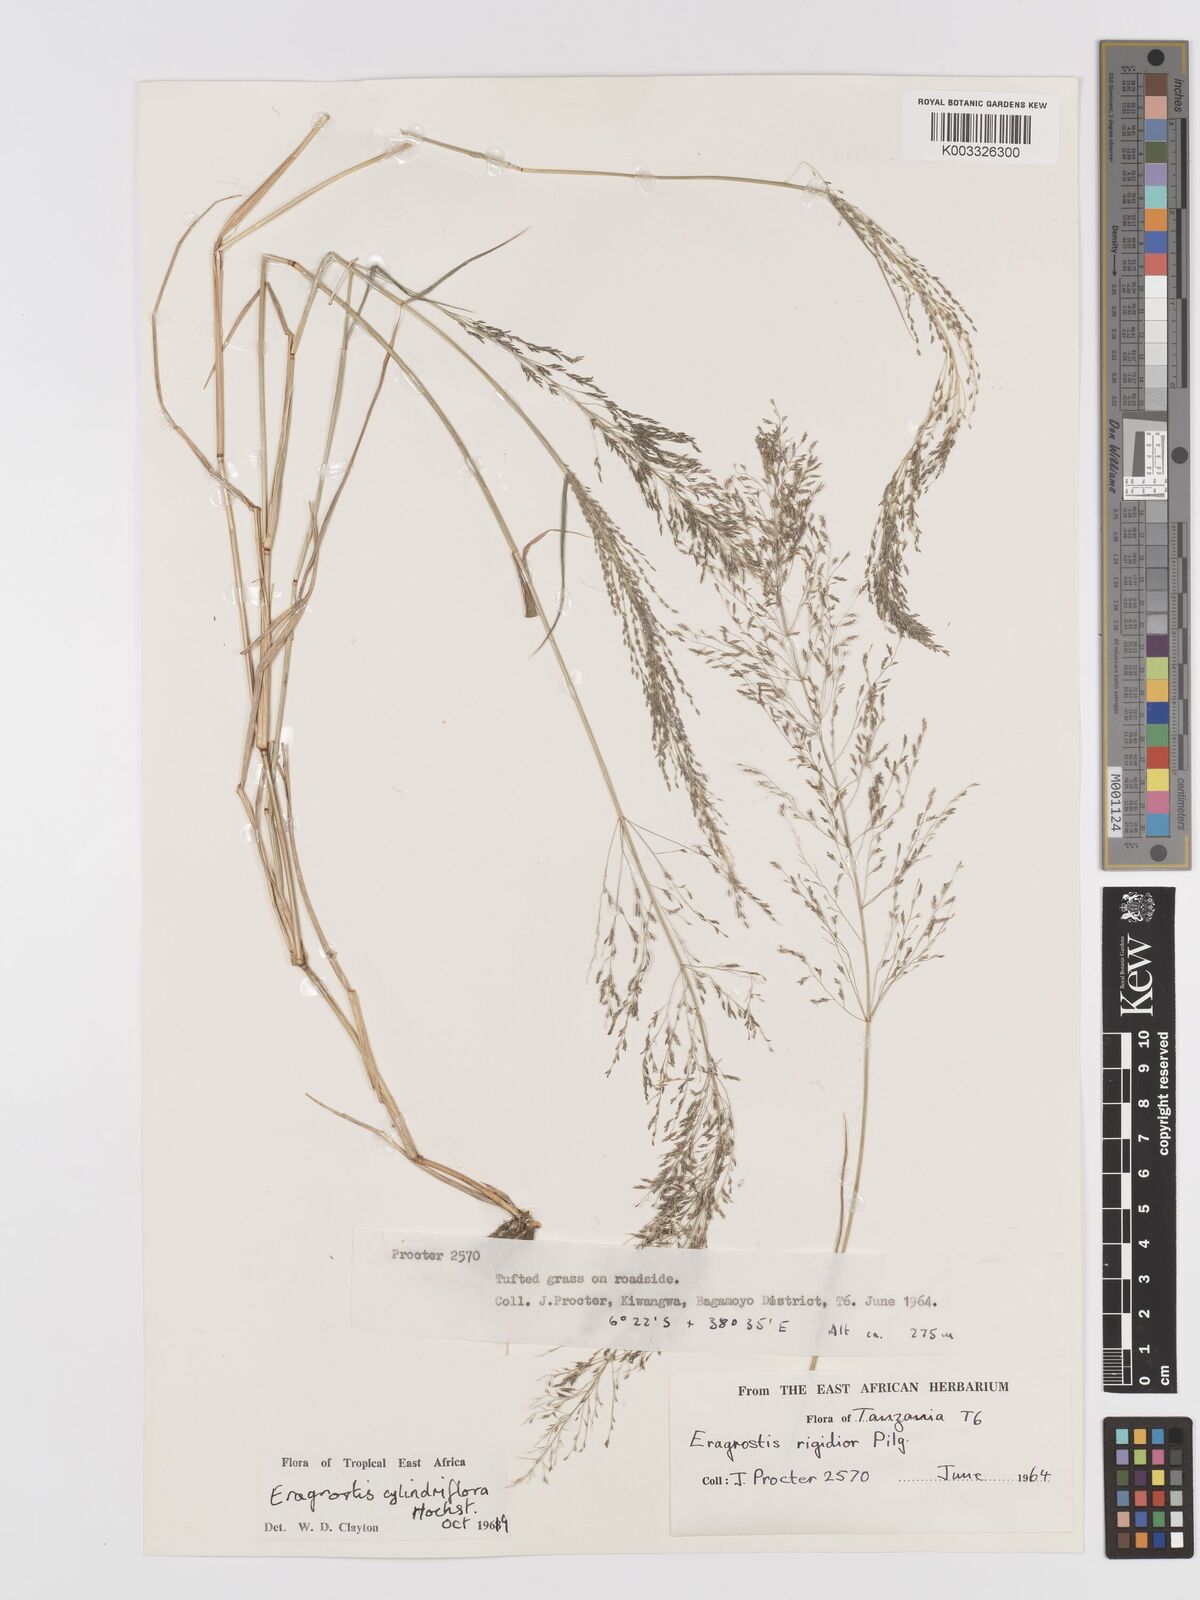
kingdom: Plantae
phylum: Tracheophyta
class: Liliopsida
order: Poales
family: Poaceae
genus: Eragrostis
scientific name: Eragrostis cylindriflora
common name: Cylinderflower lovegrass
